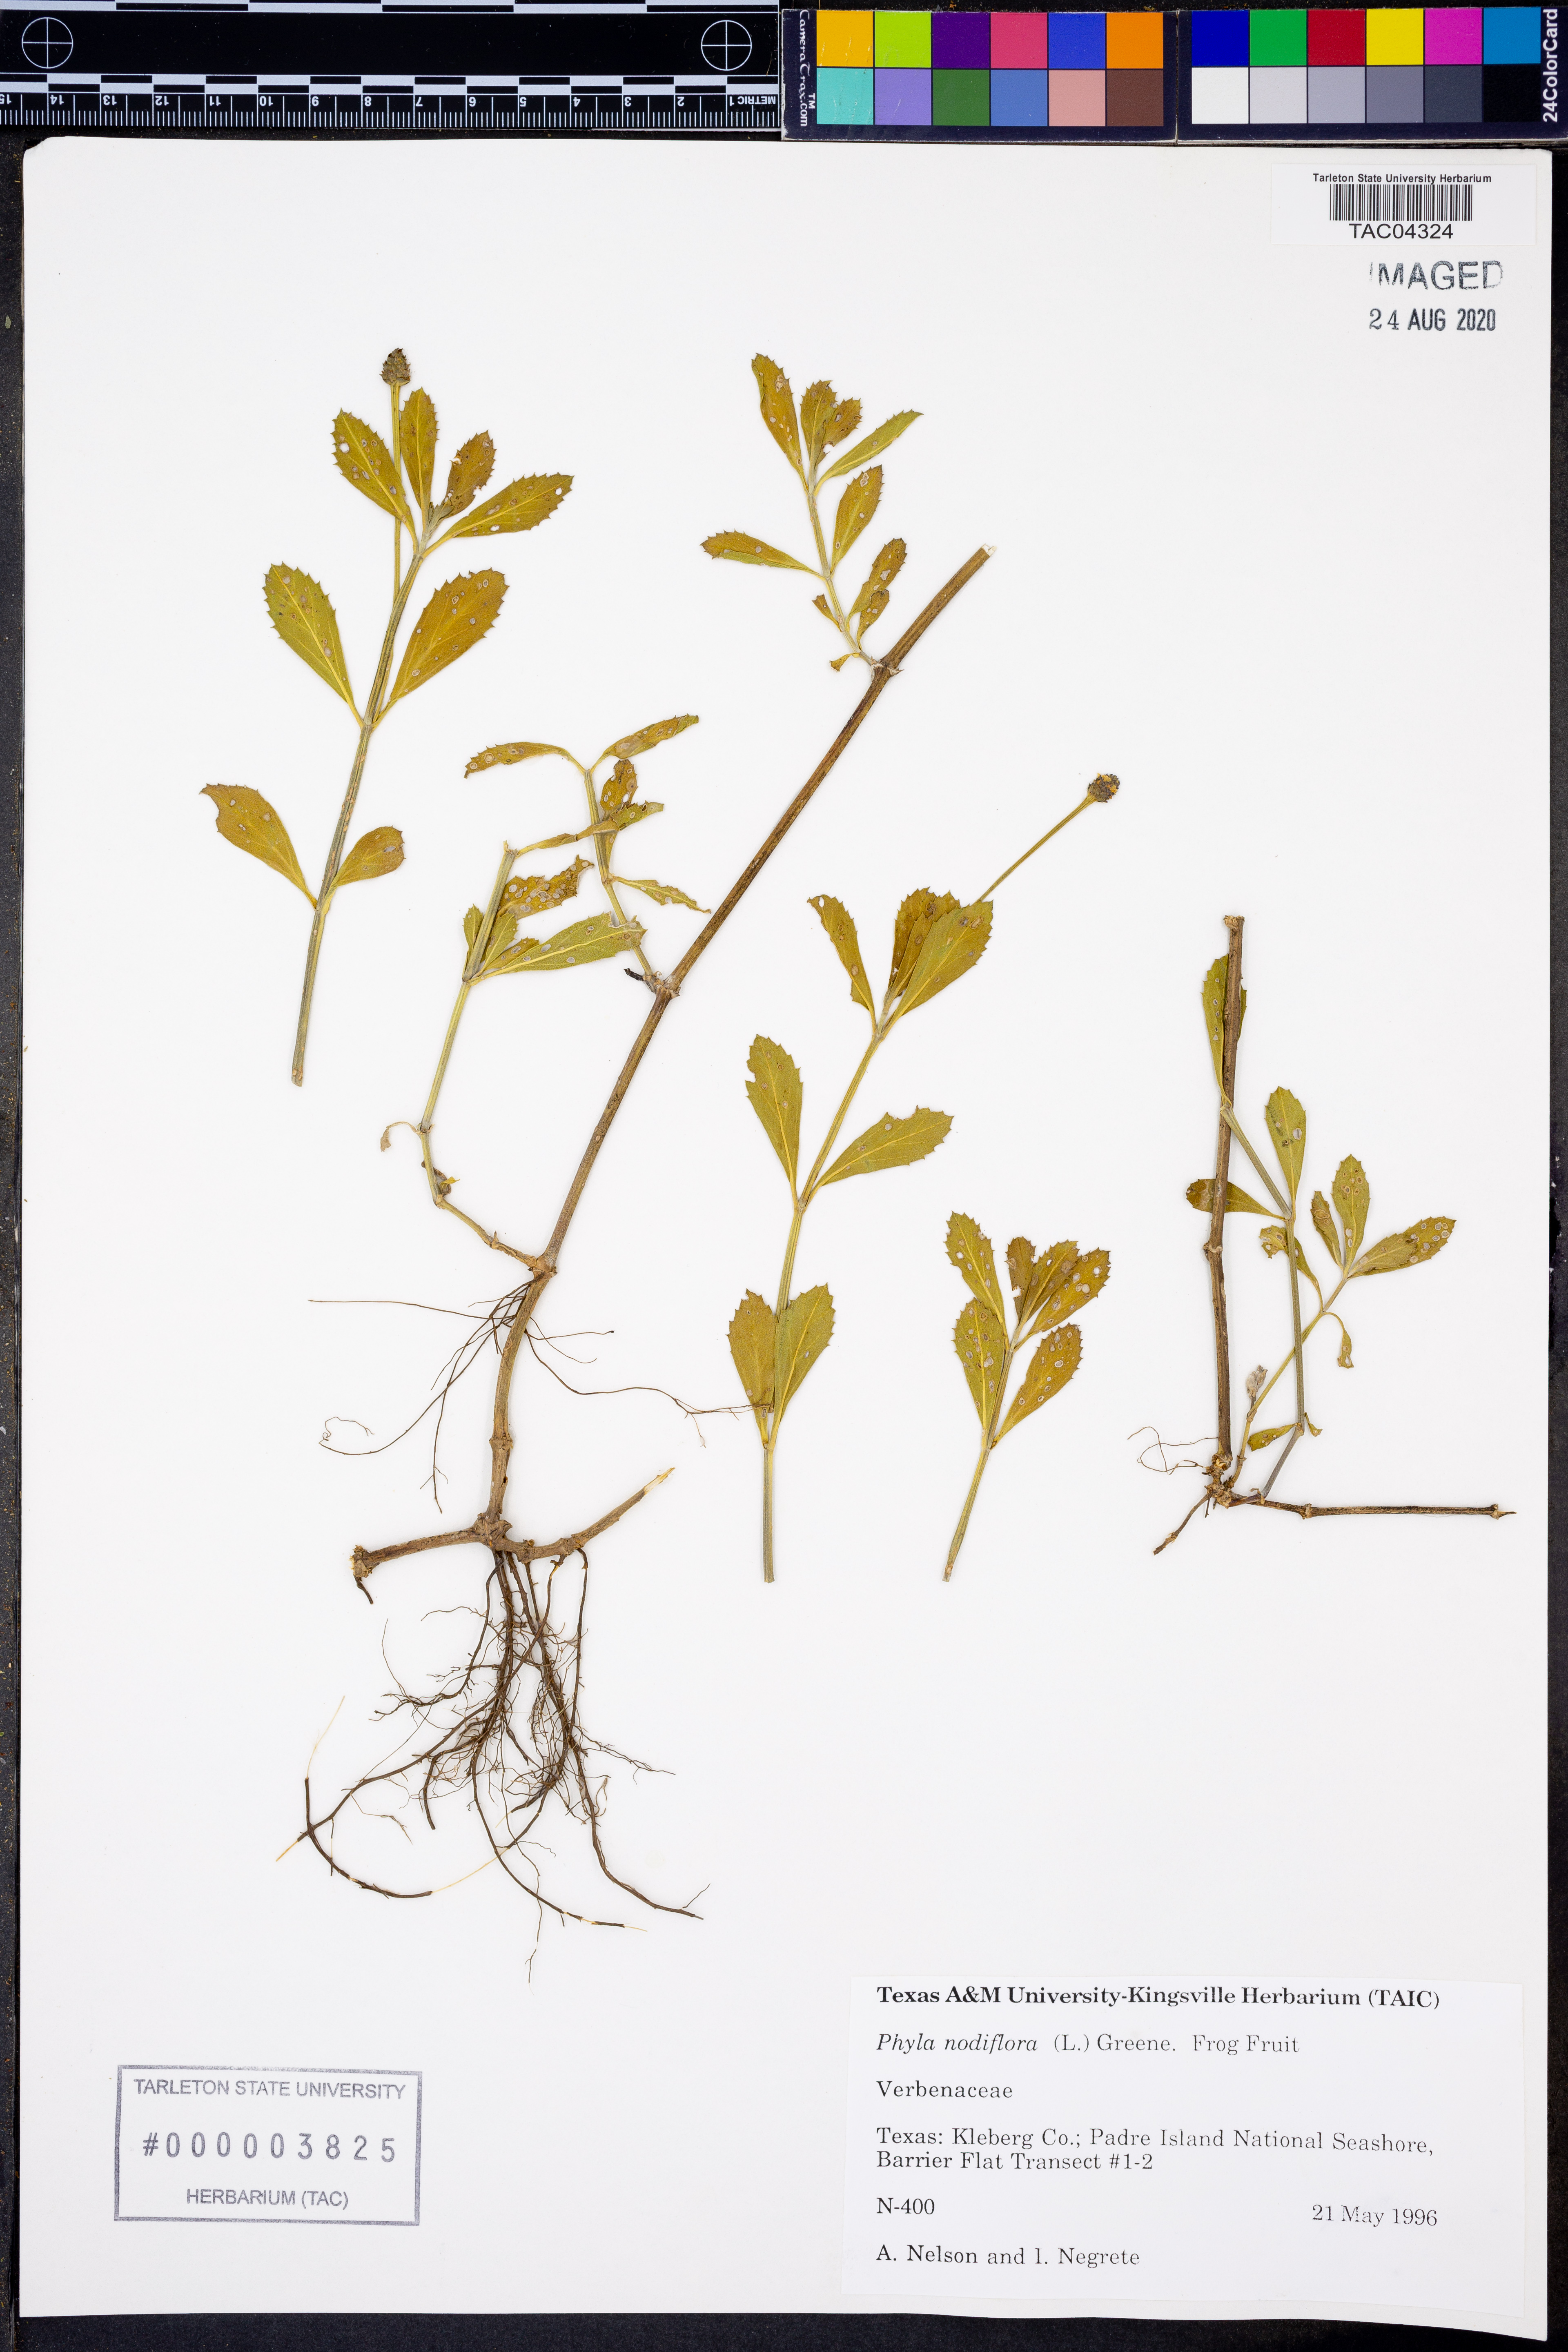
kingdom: Plantae
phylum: Tracheophyta
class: Magnoliopsida
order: Lamiales
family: Verbenaceae
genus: Phyla
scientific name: Phyla nodiflora
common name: Frogfruit
